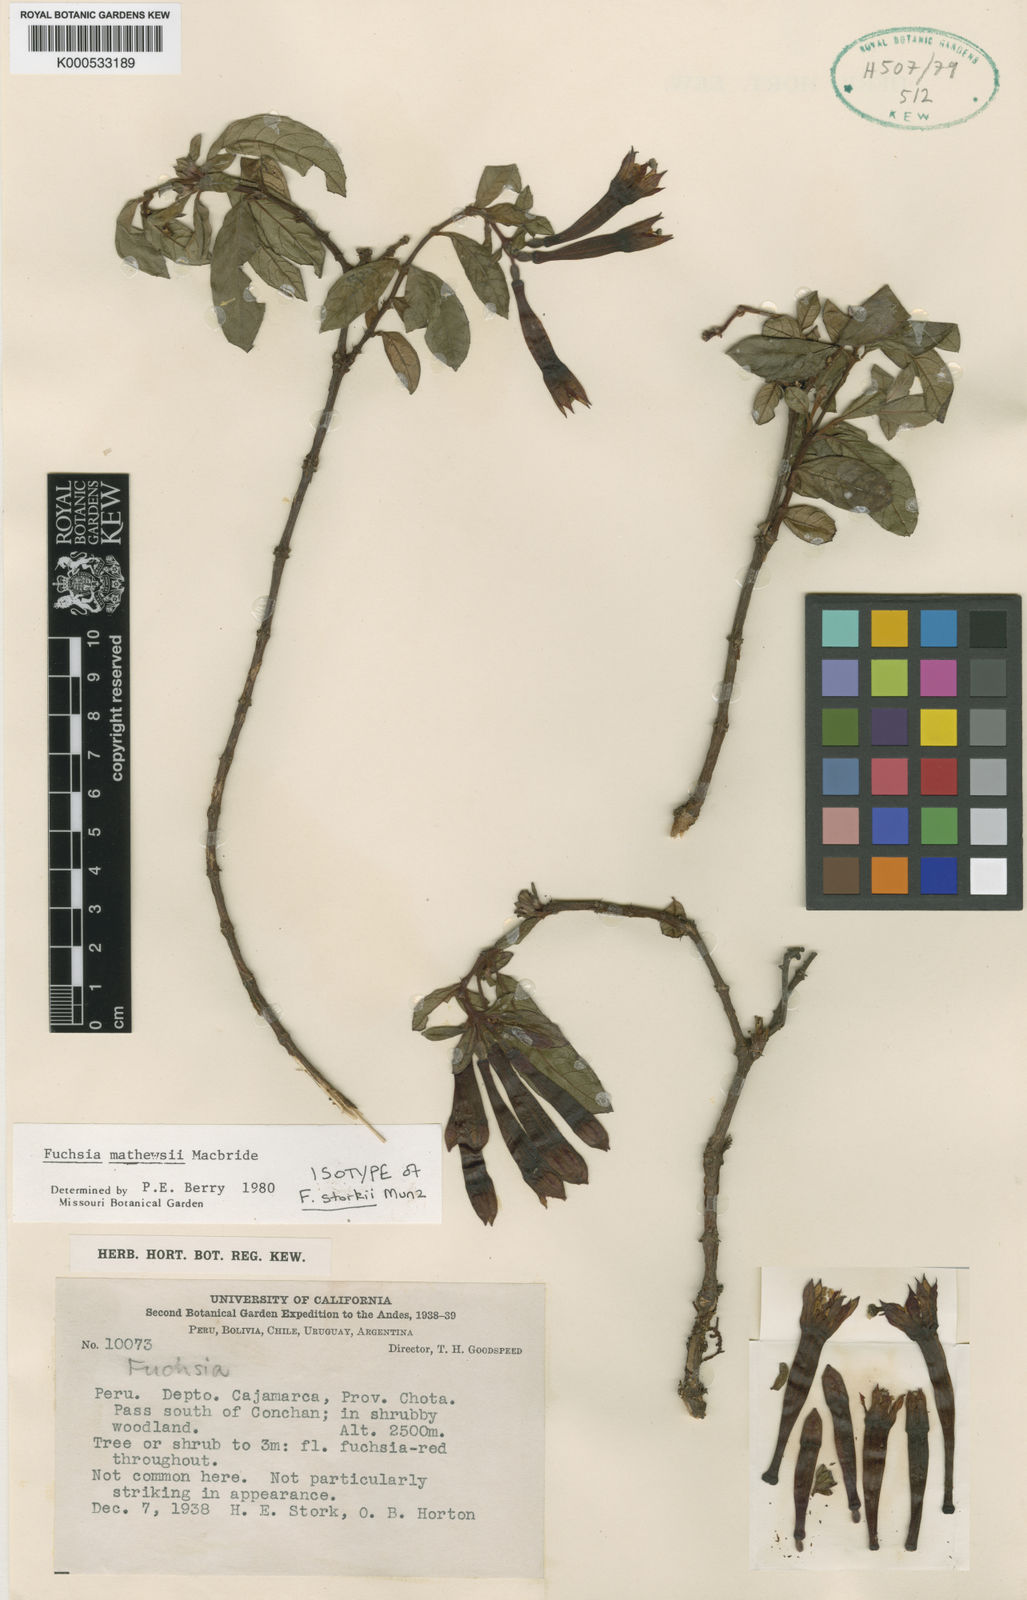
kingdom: Plantae
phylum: Tracheophyta
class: Magnoliopsida
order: Myrtales
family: Onagraceae
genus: Fuchsia
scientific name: Fuchsia mathewsii
